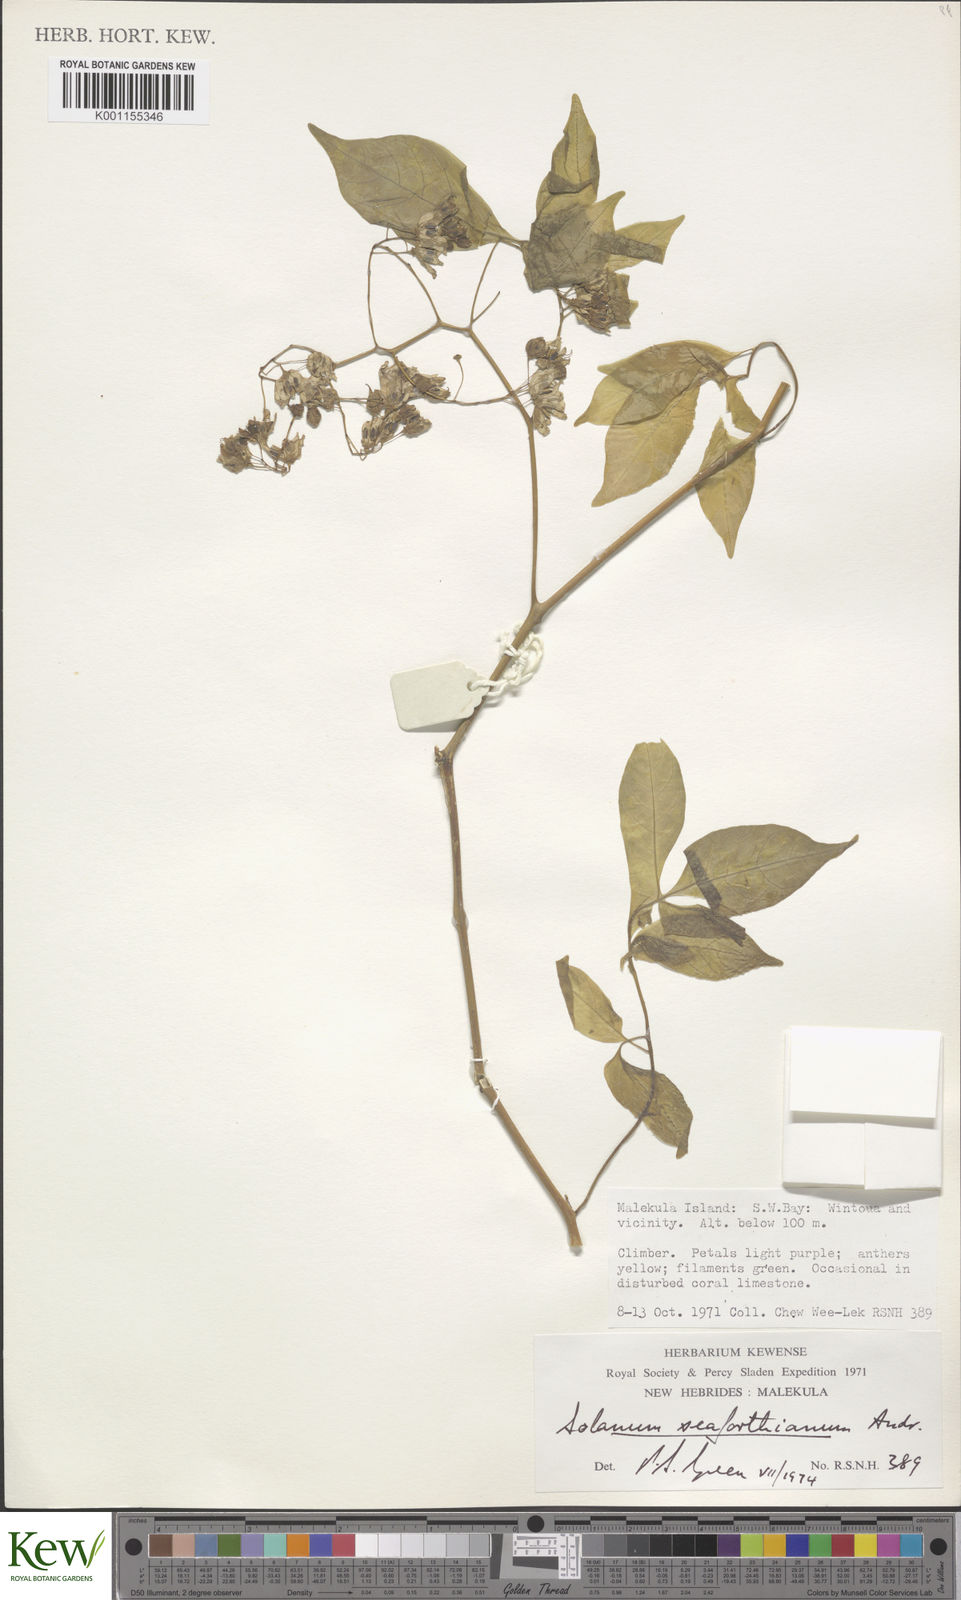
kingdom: Plantae
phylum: Tracheophyta
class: Magnoliopsida
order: Solanales
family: Solanaceae
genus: Solanum
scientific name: Solanum seaforthianum
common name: Brazilian nightshade
